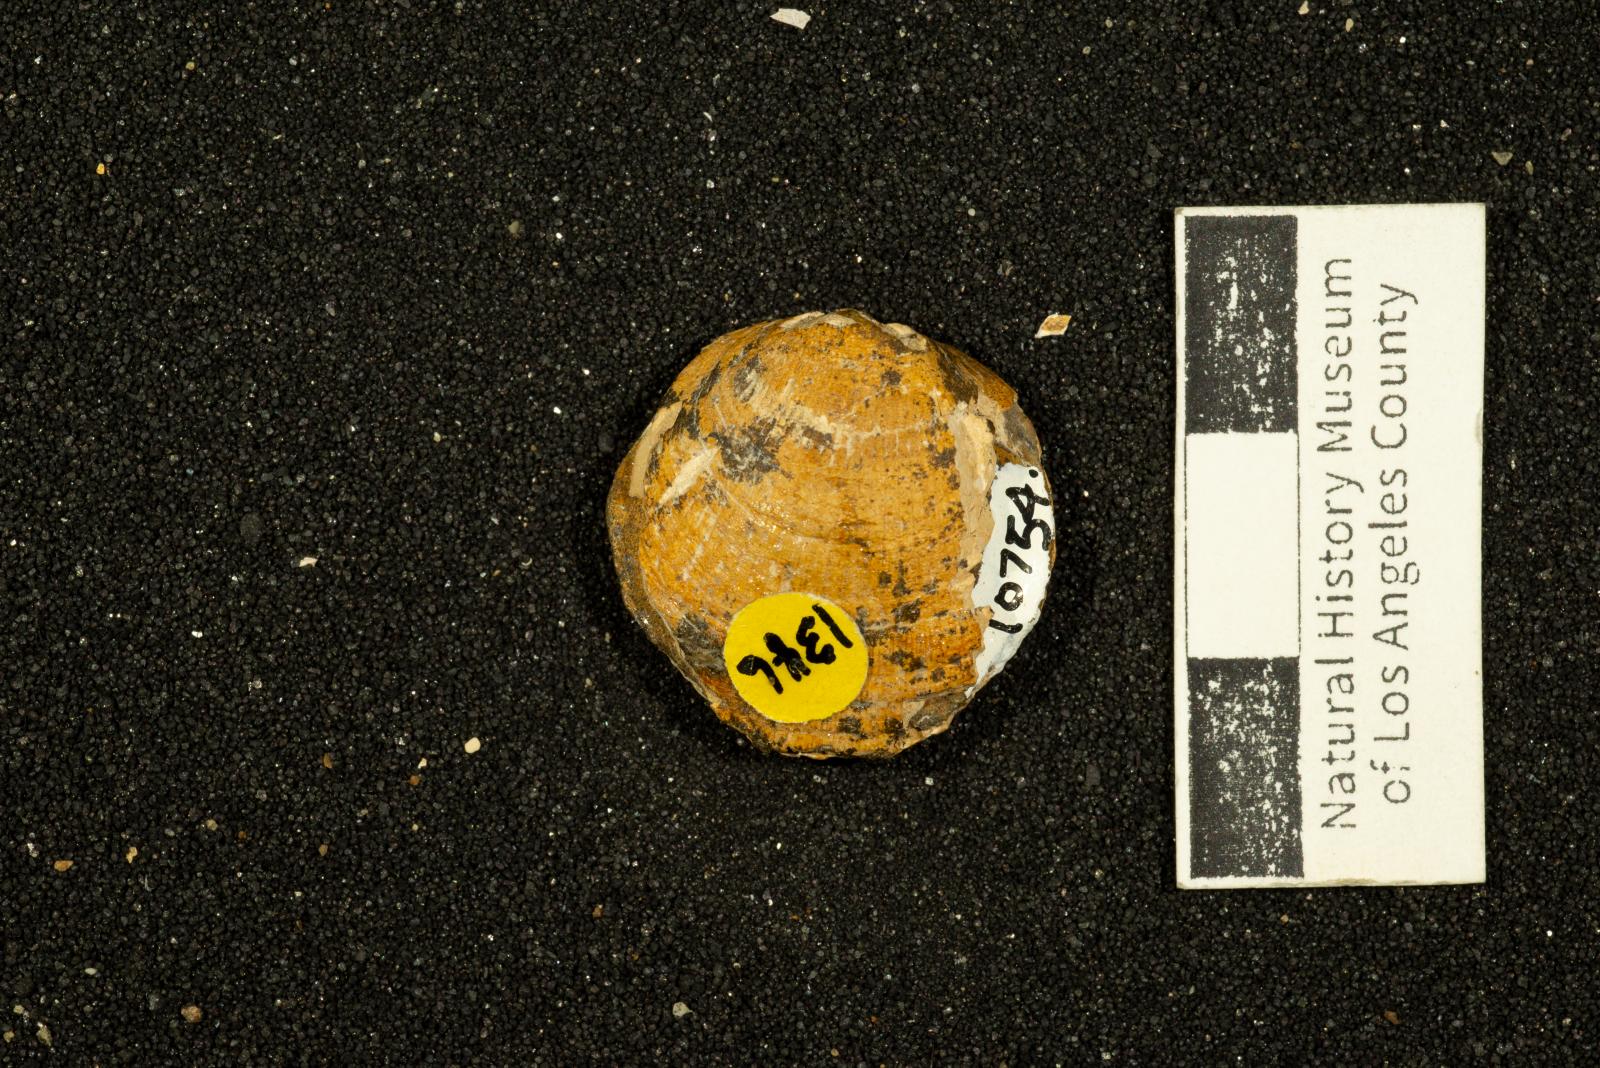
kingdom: Animalia
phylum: Mollusca
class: Bivalvia
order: Arcida
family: Glycymerididae
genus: Glycymerita
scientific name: Glycymerita Axinaea veatchii
